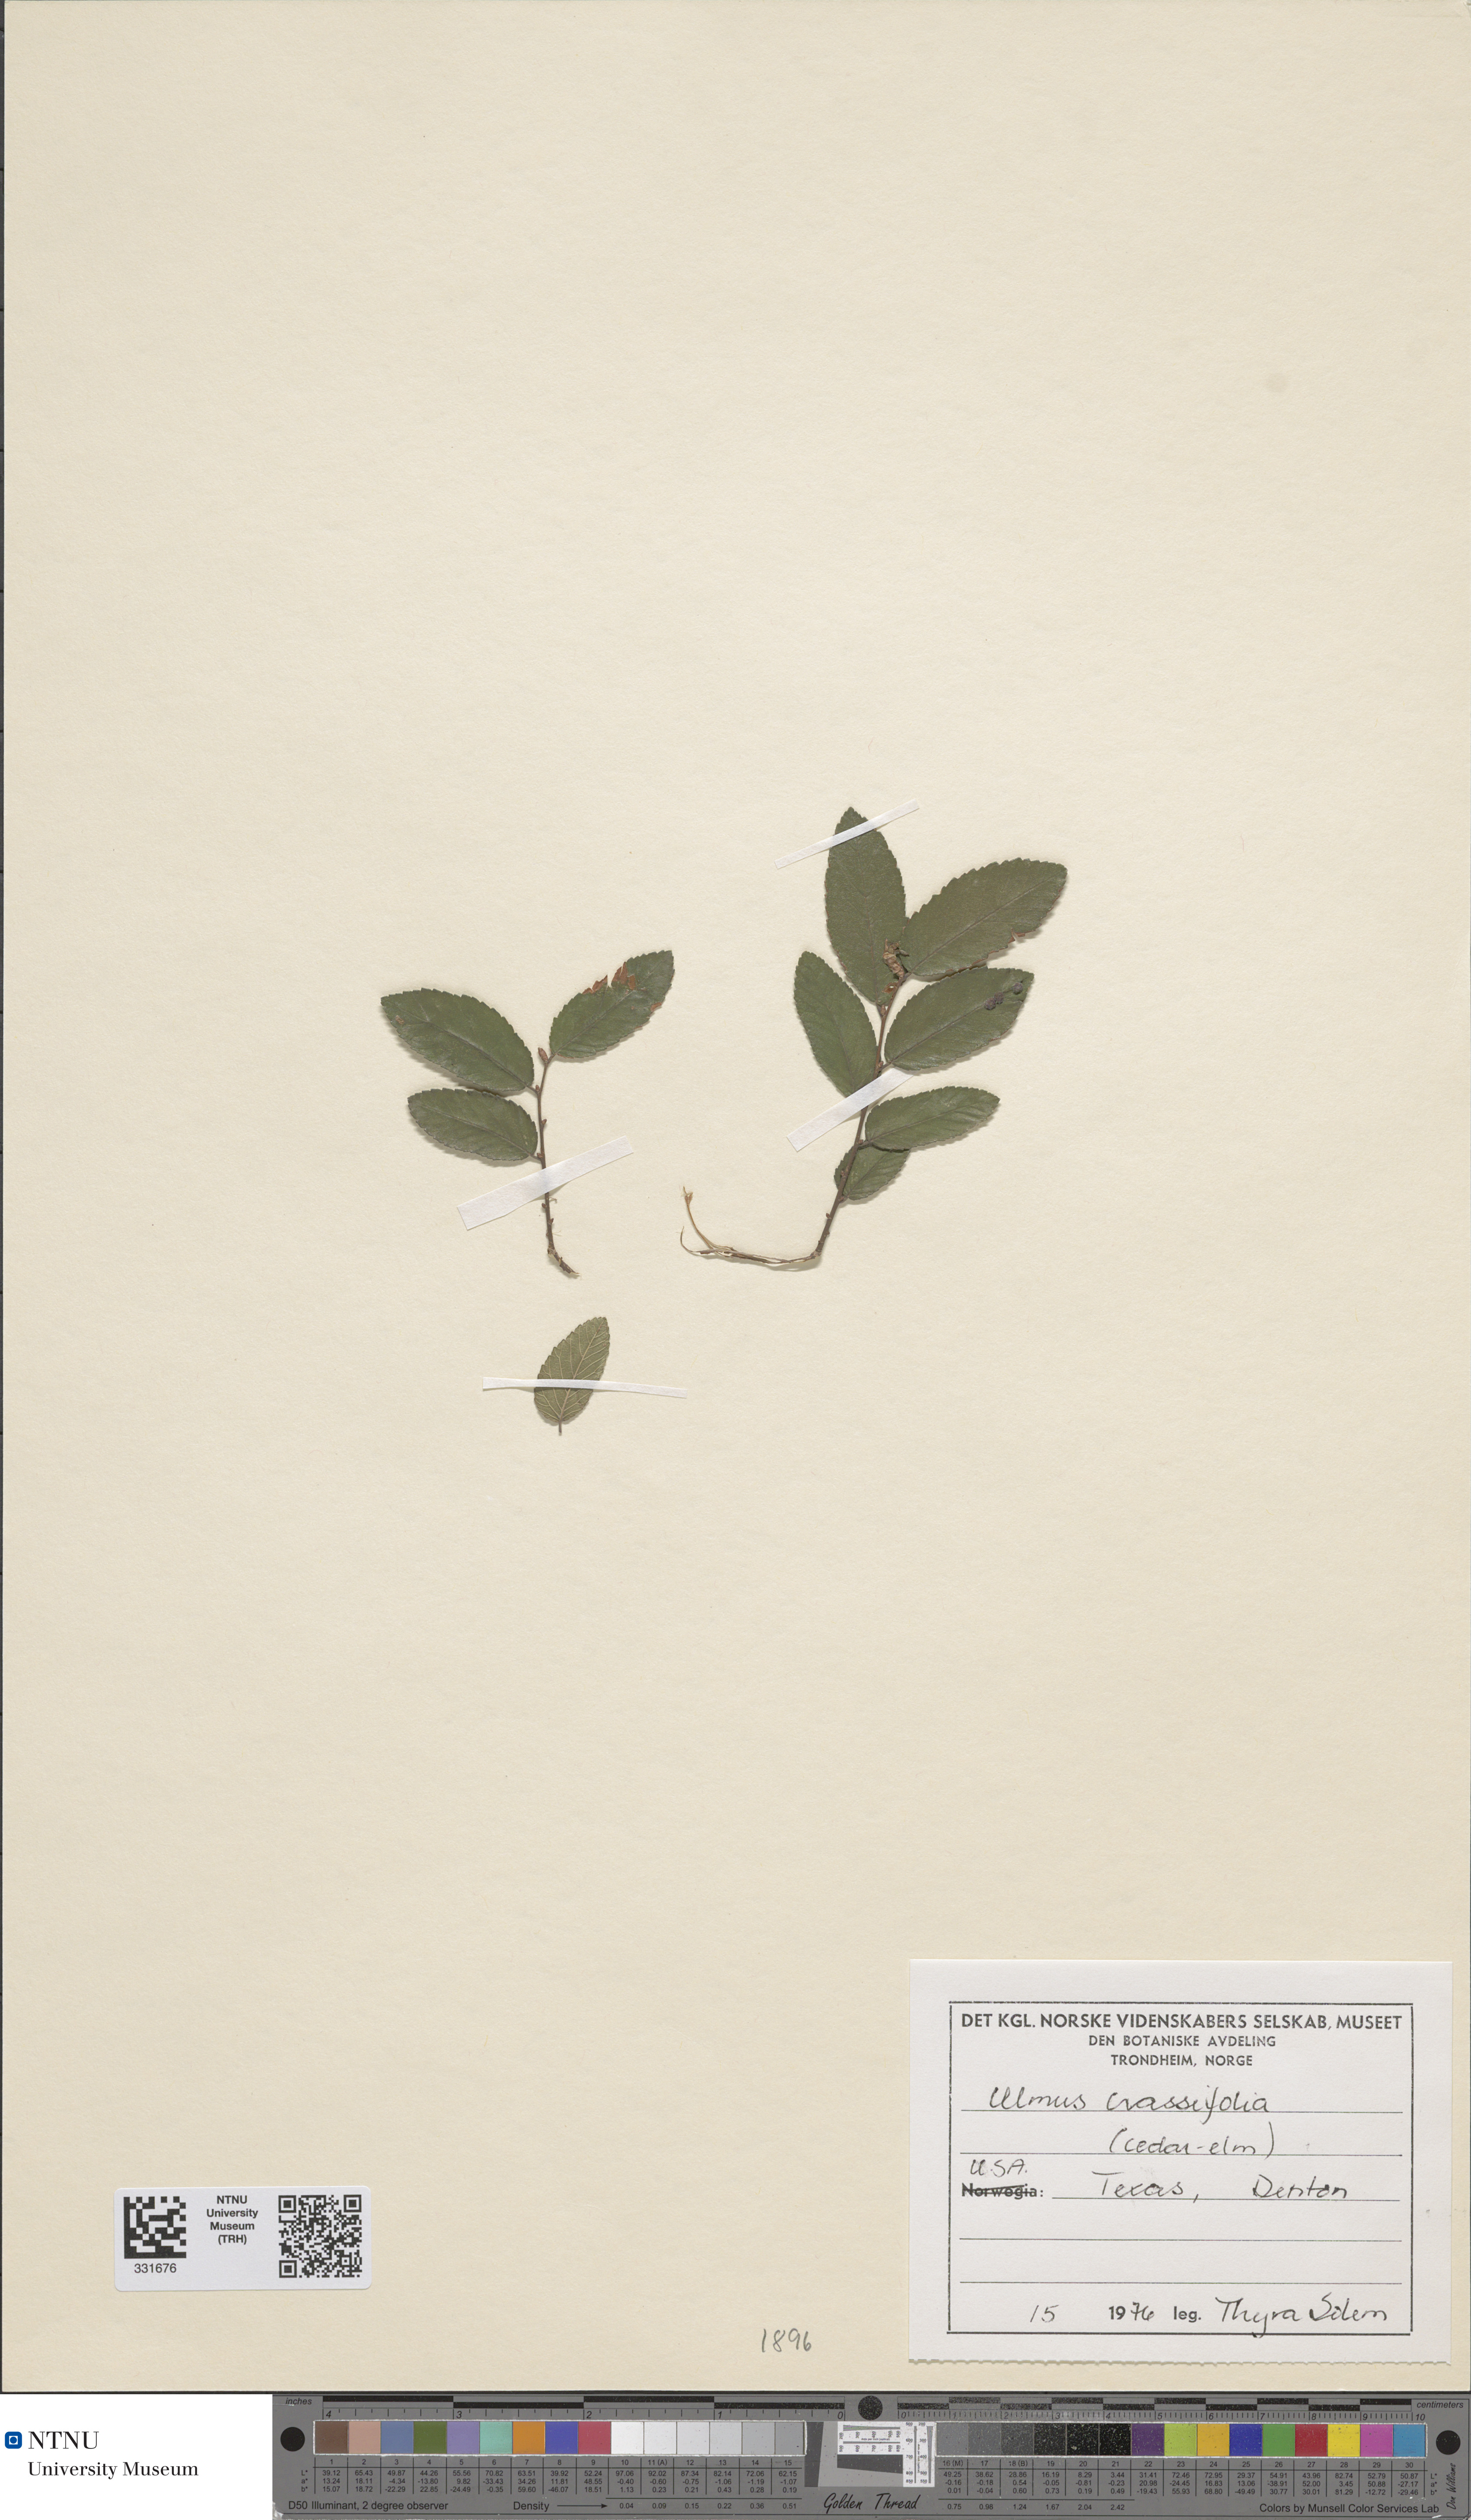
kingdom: Plantae
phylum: Tracheophyta
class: Magnoliopsida
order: Rosales
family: Ulmaceae
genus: Ulmus
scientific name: Ulmus crassifolia
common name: Basket elm
